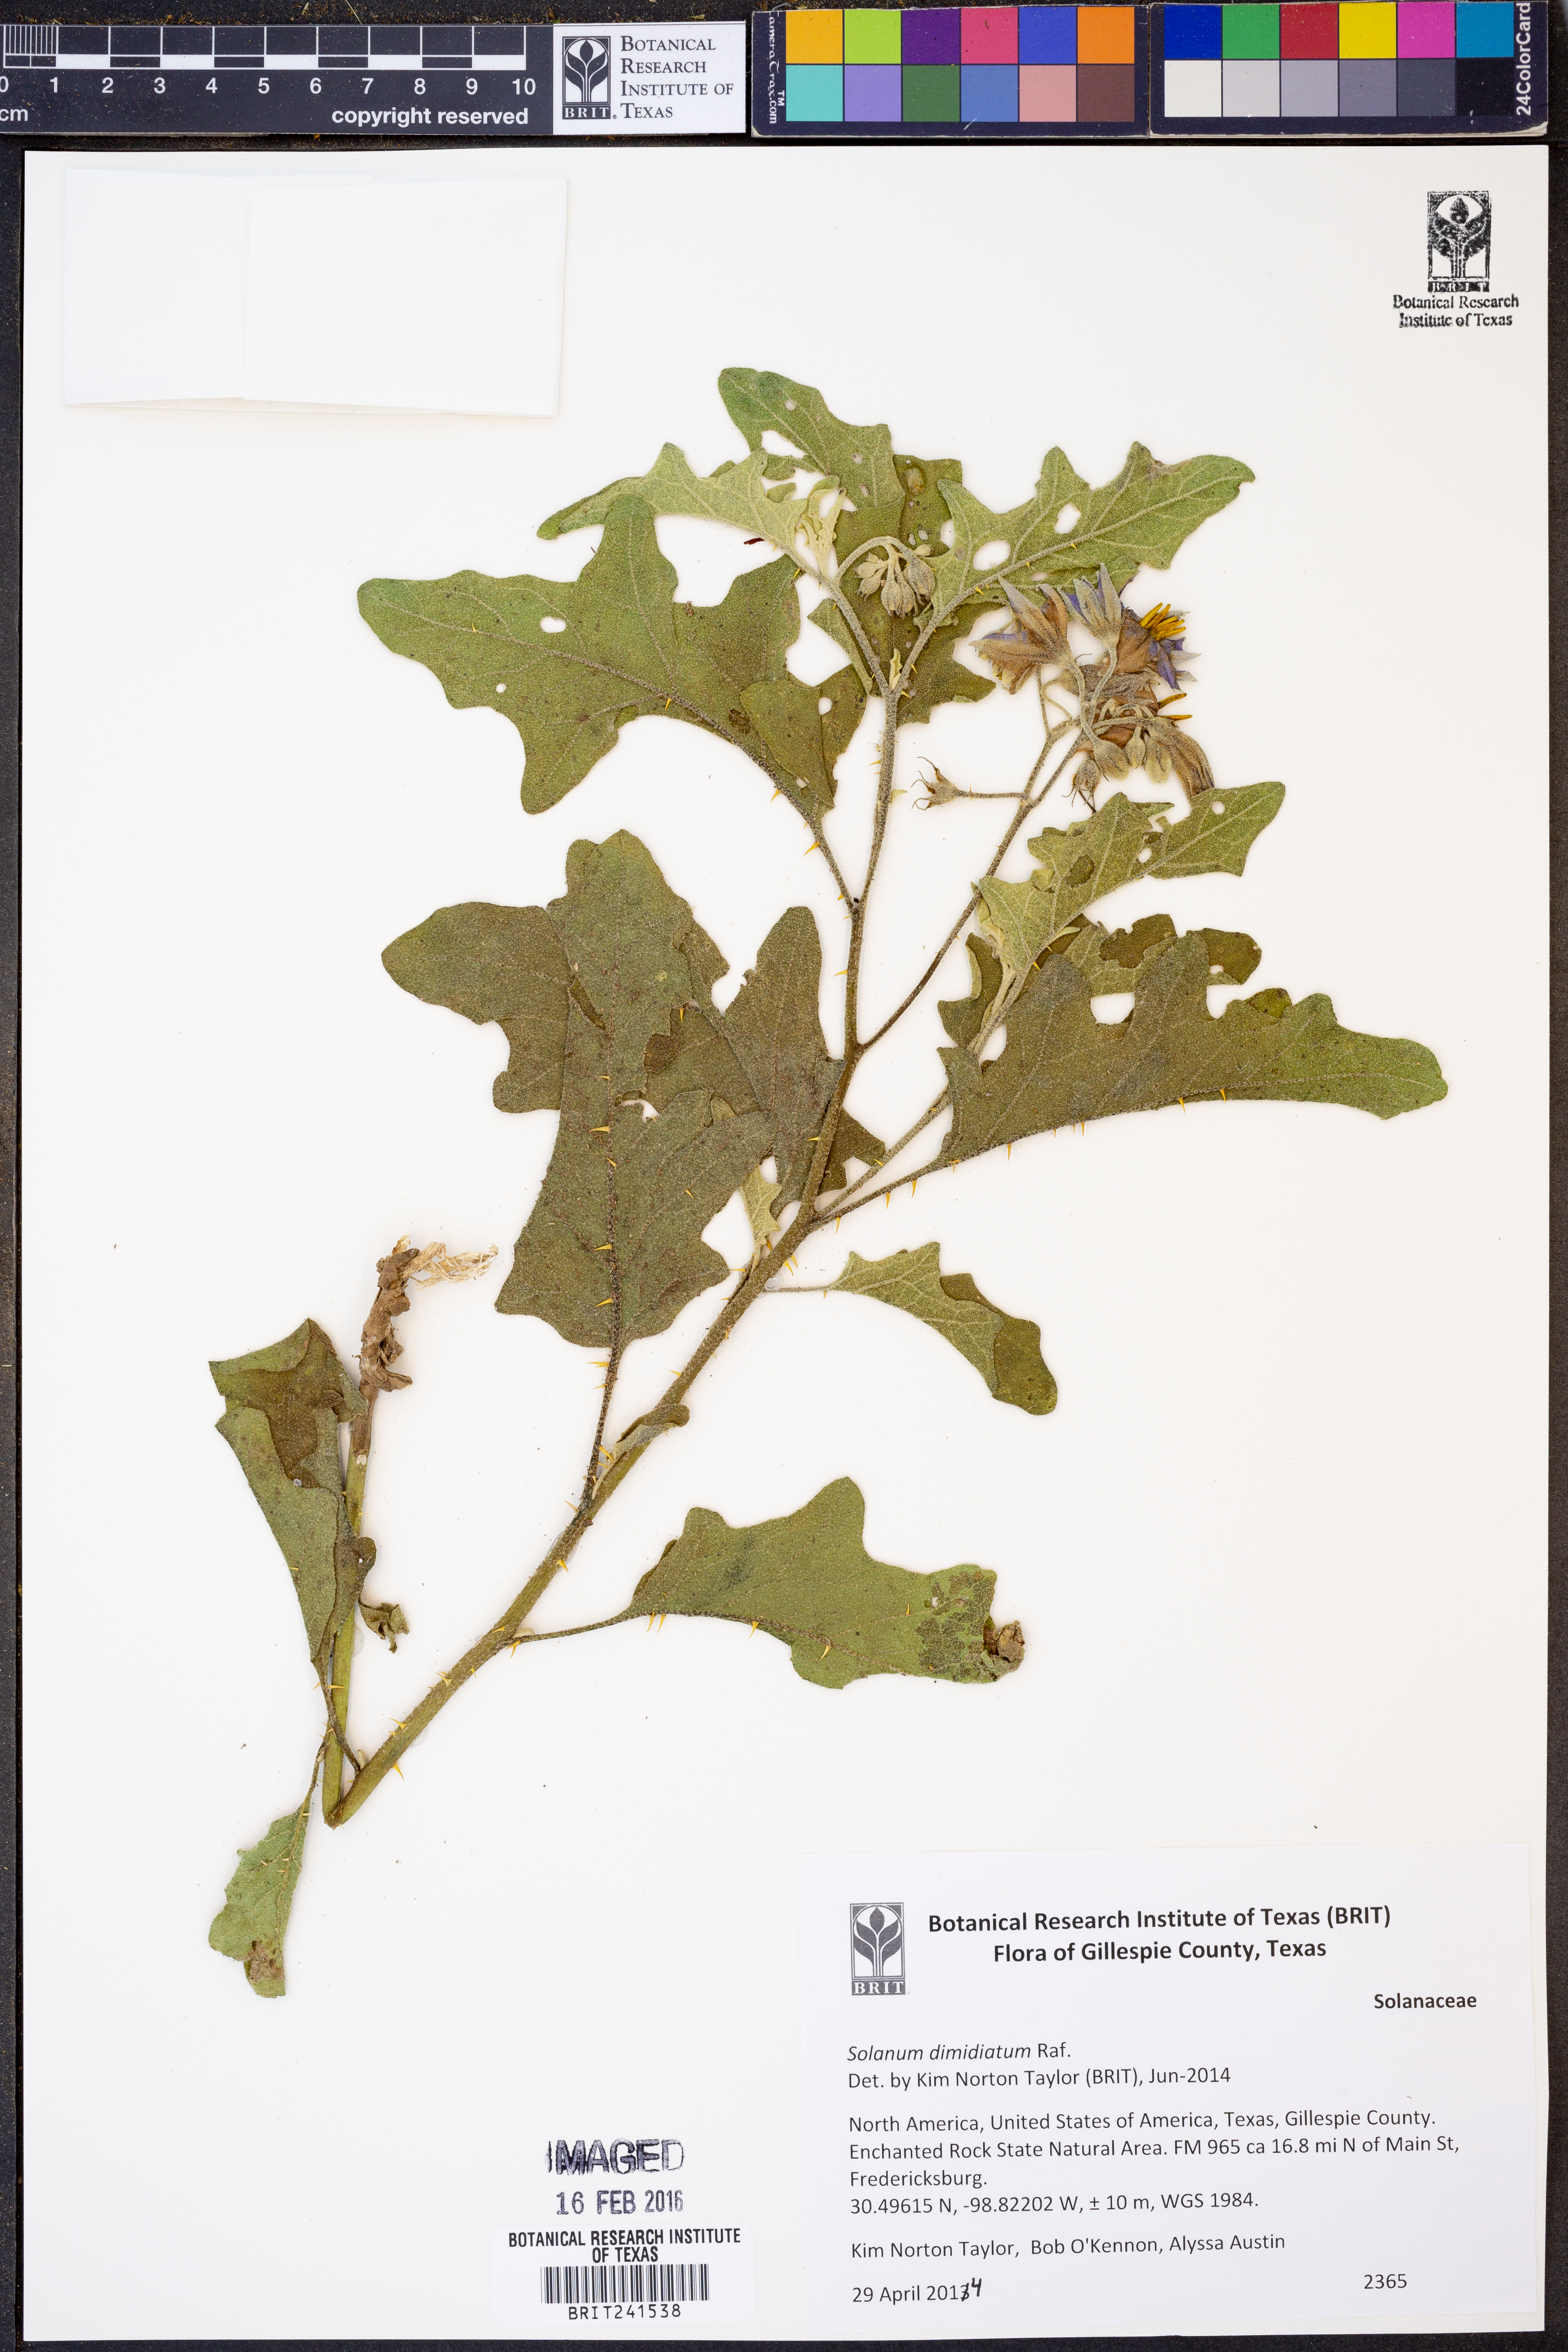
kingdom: Plantae
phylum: Tracheophyta
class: Magnoliopsida
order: Solanales
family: Solanaceae
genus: Solanum
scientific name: Solanum dimidiatum
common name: Carolina horse-nettle
